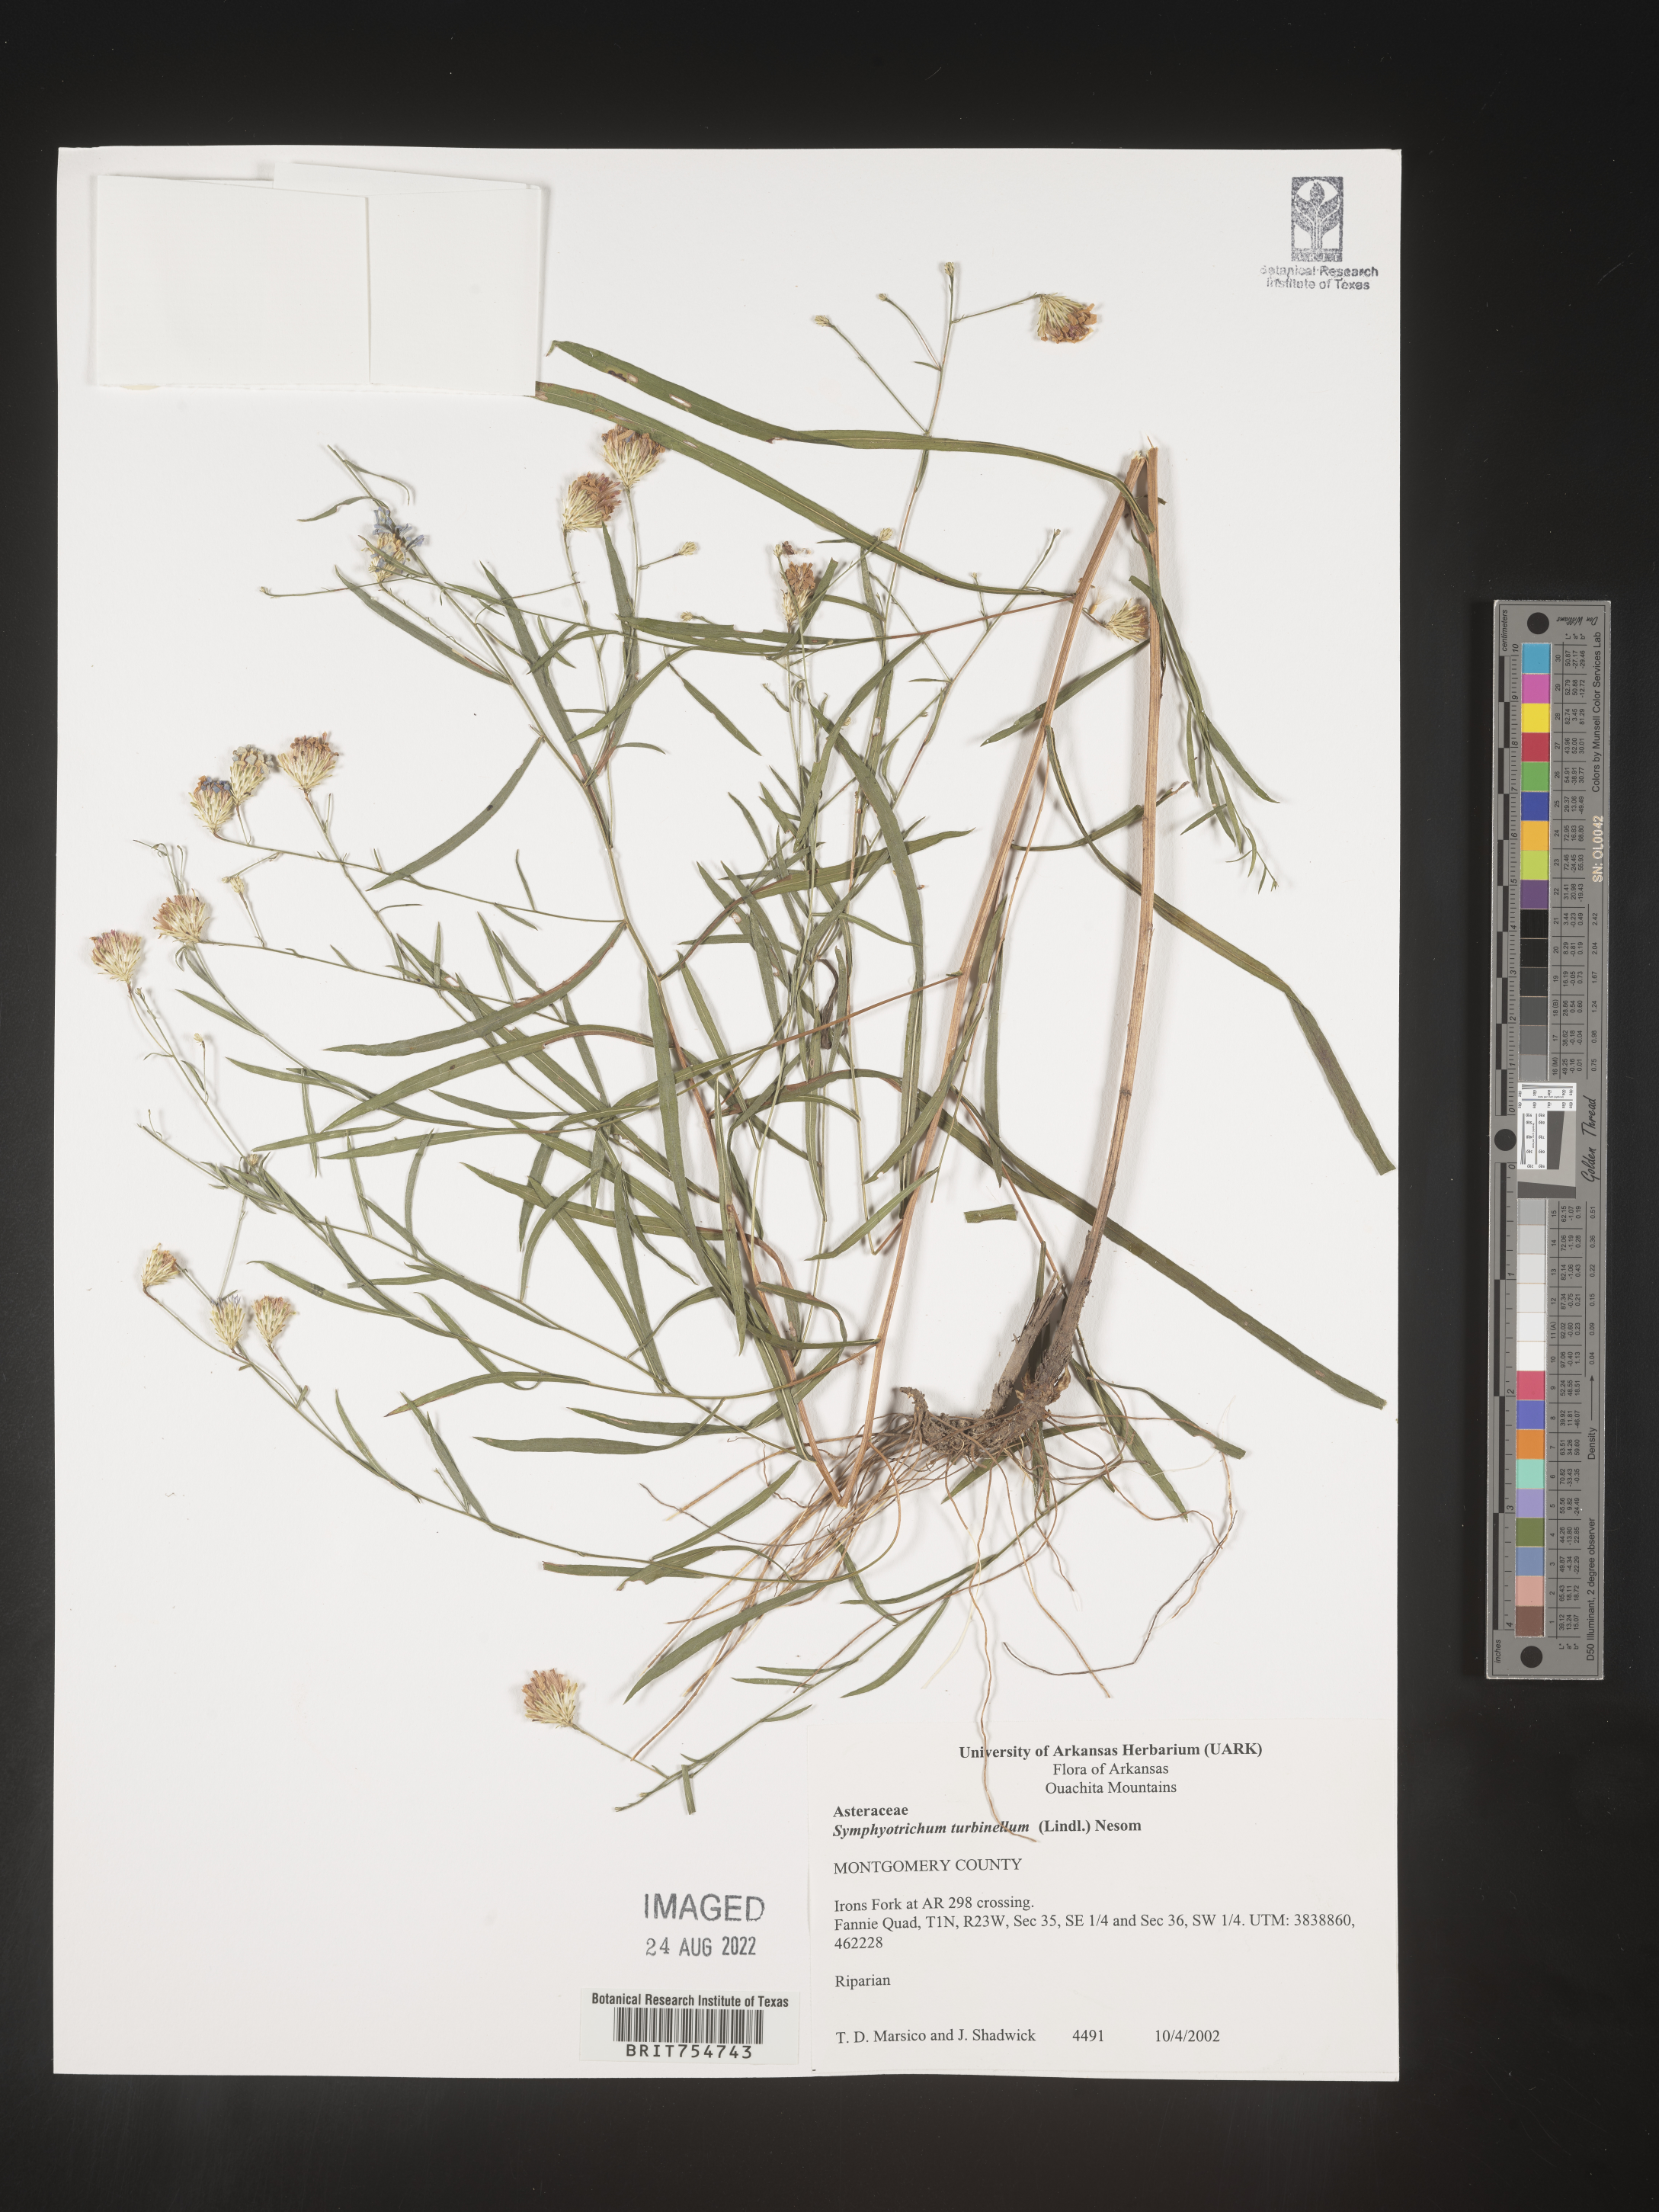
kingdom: Plantae
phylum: Tracheophyta
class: Magnoliopsida
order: Asterales
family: Asteraceae
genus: Symphyotrichum
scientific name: Symphyotrichum turbinellum
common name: Prairie aster
